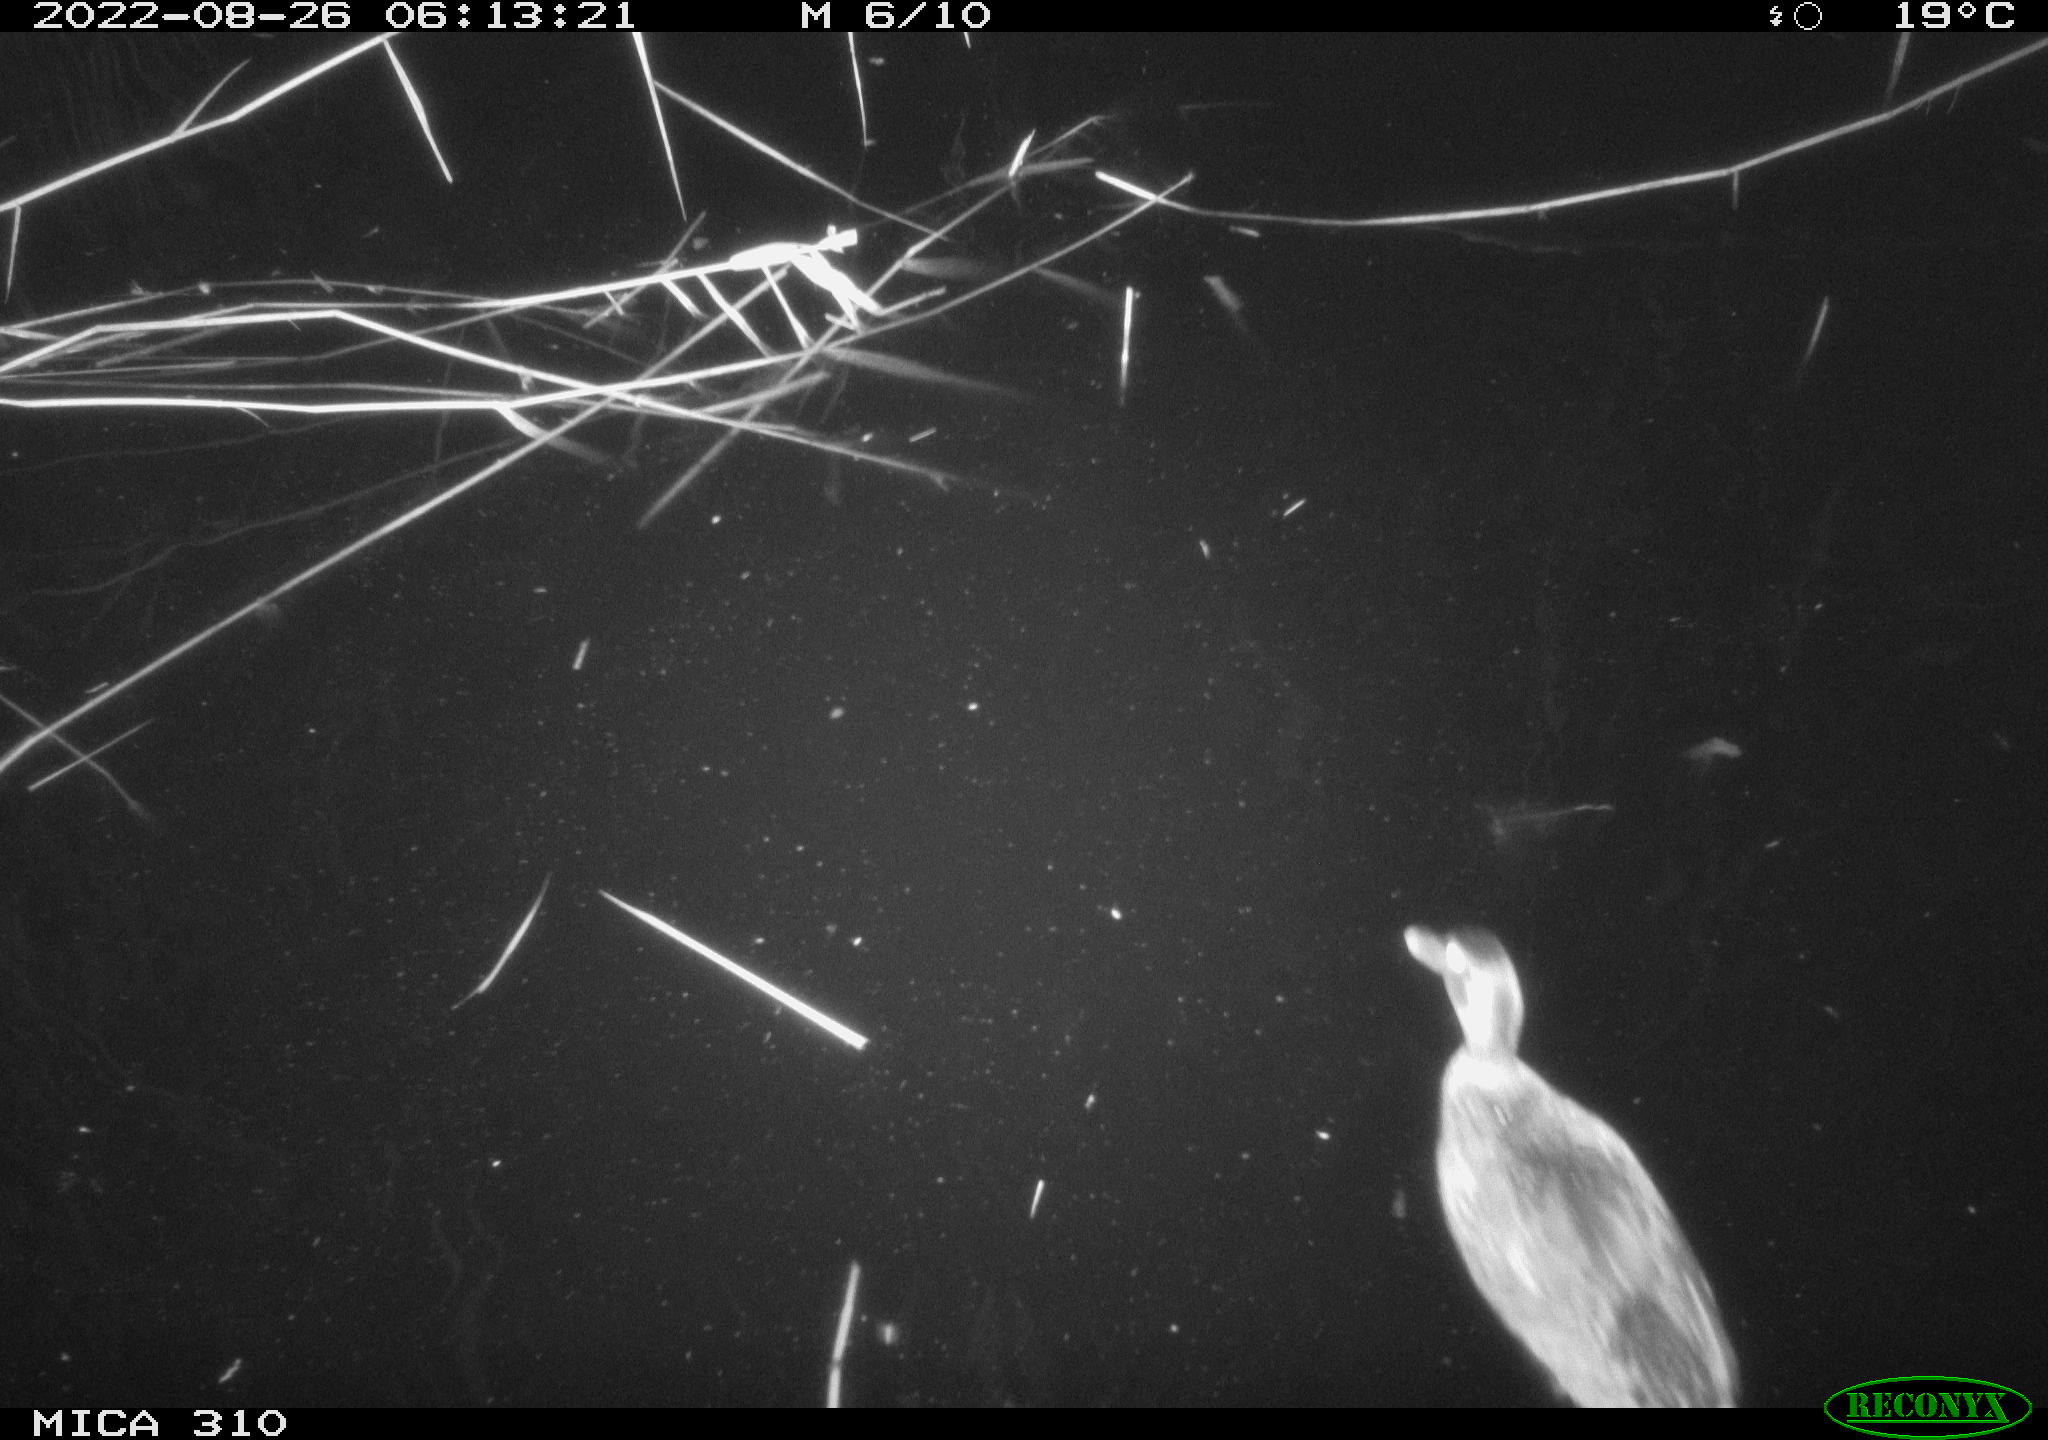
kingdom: Animalia
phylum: Chordata
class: Aves
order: Pelecaniformes
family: Ardeidae
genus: Ardea
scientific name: Ardea
